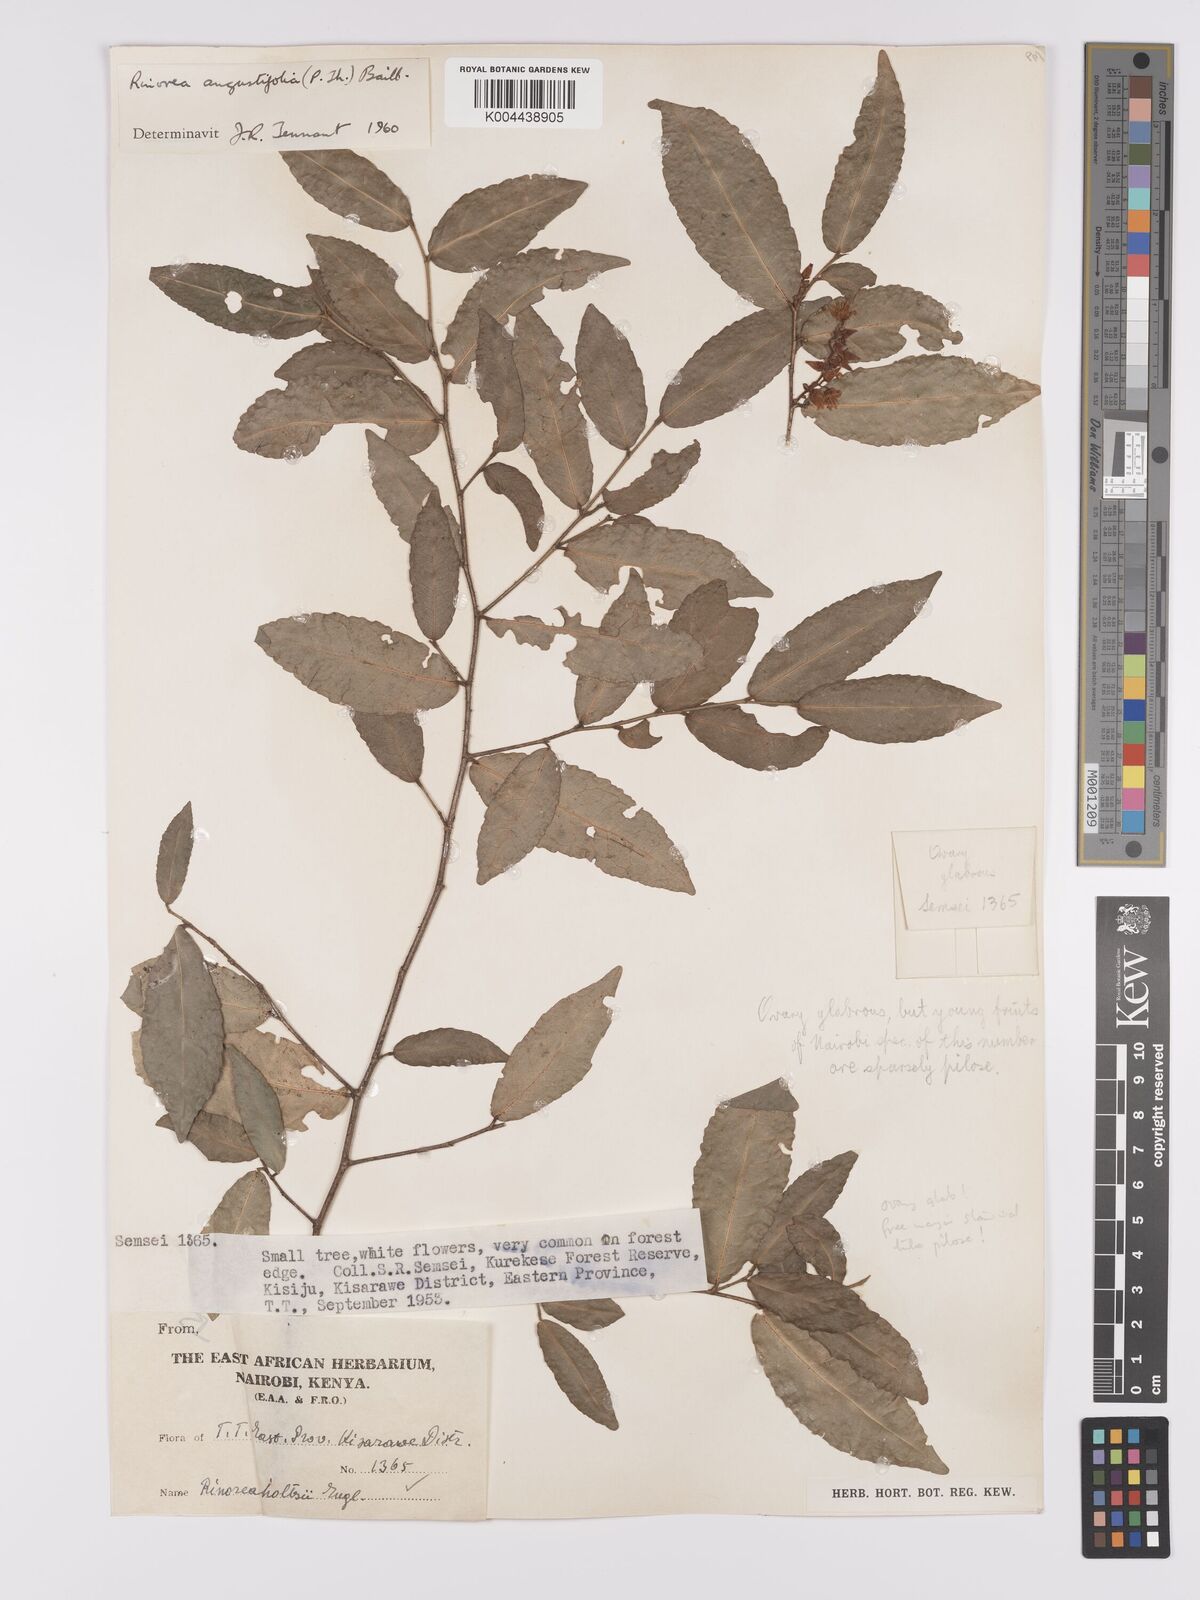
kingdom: Plantae
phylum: Tracheophyta
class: Magnoliopsida
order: Malpighiales
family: Violaceae
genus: Rinorea
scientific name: Rinorea angustifolia
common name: White violet-bush
